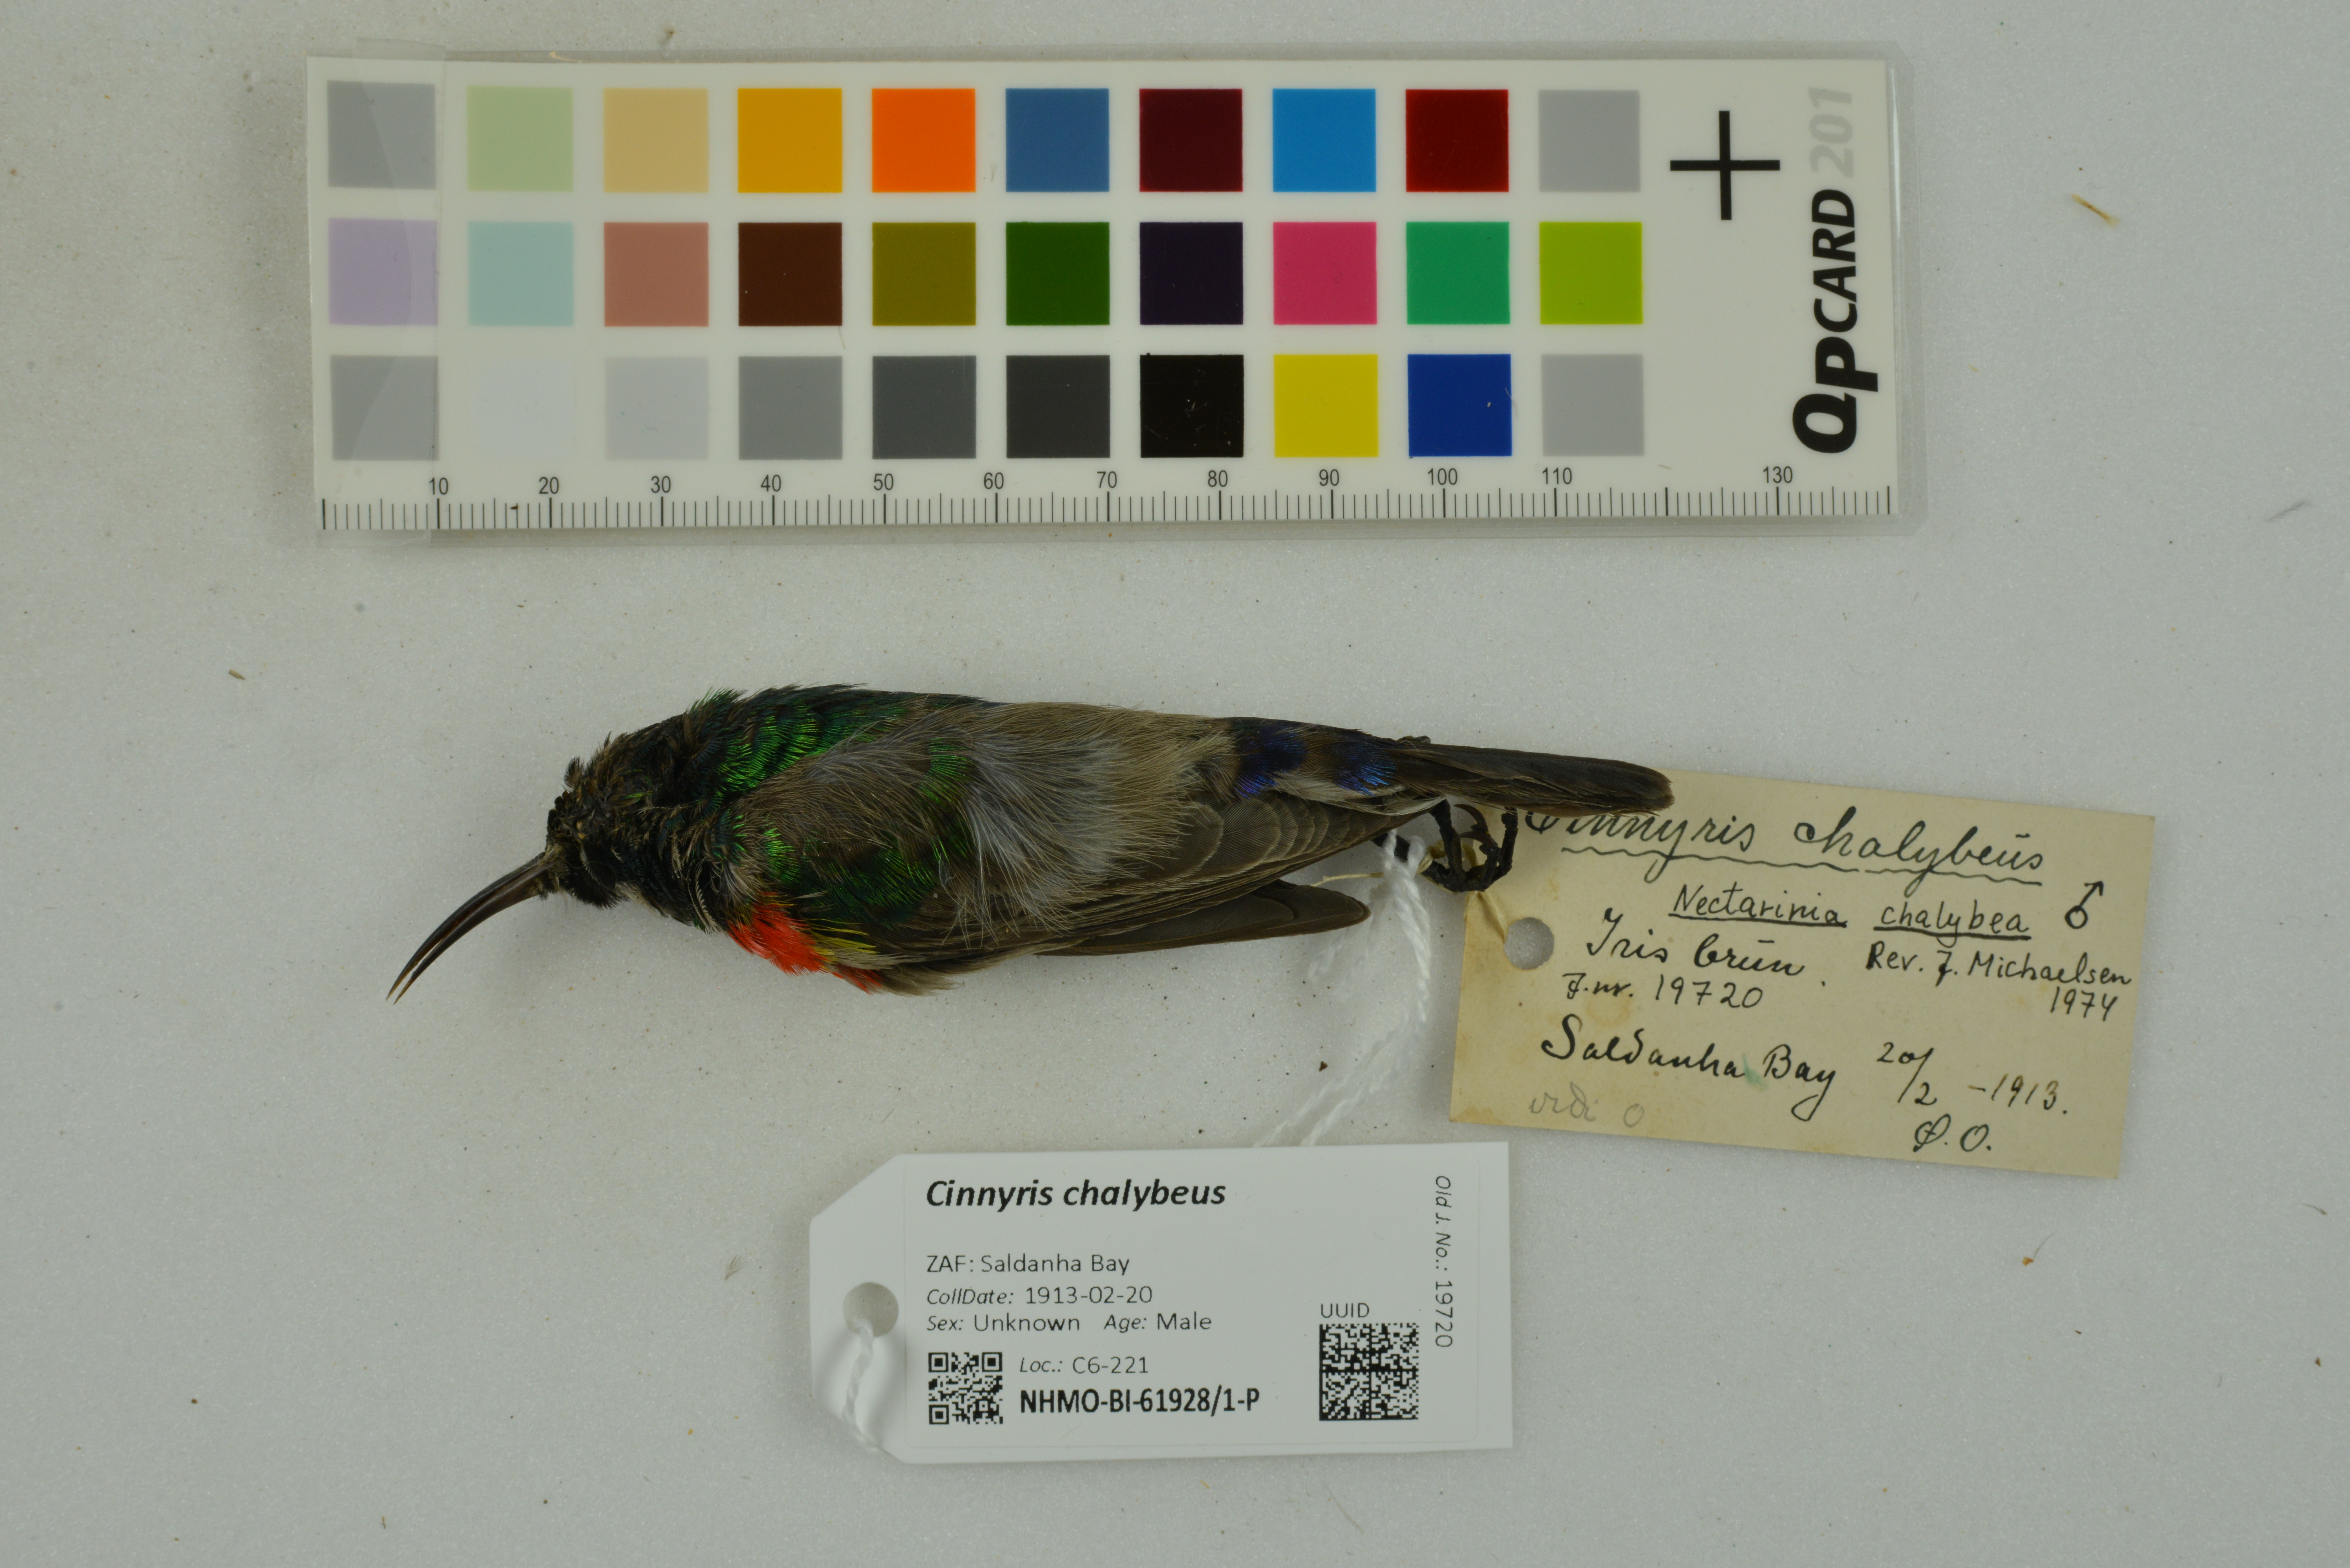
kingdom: Animalia
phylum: Chordata
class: Aves
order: Passeriformes
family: Nectariniidae
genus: Cinnyris
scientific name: Cinnyris chalybeus
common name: Southern double-collared sunbird
